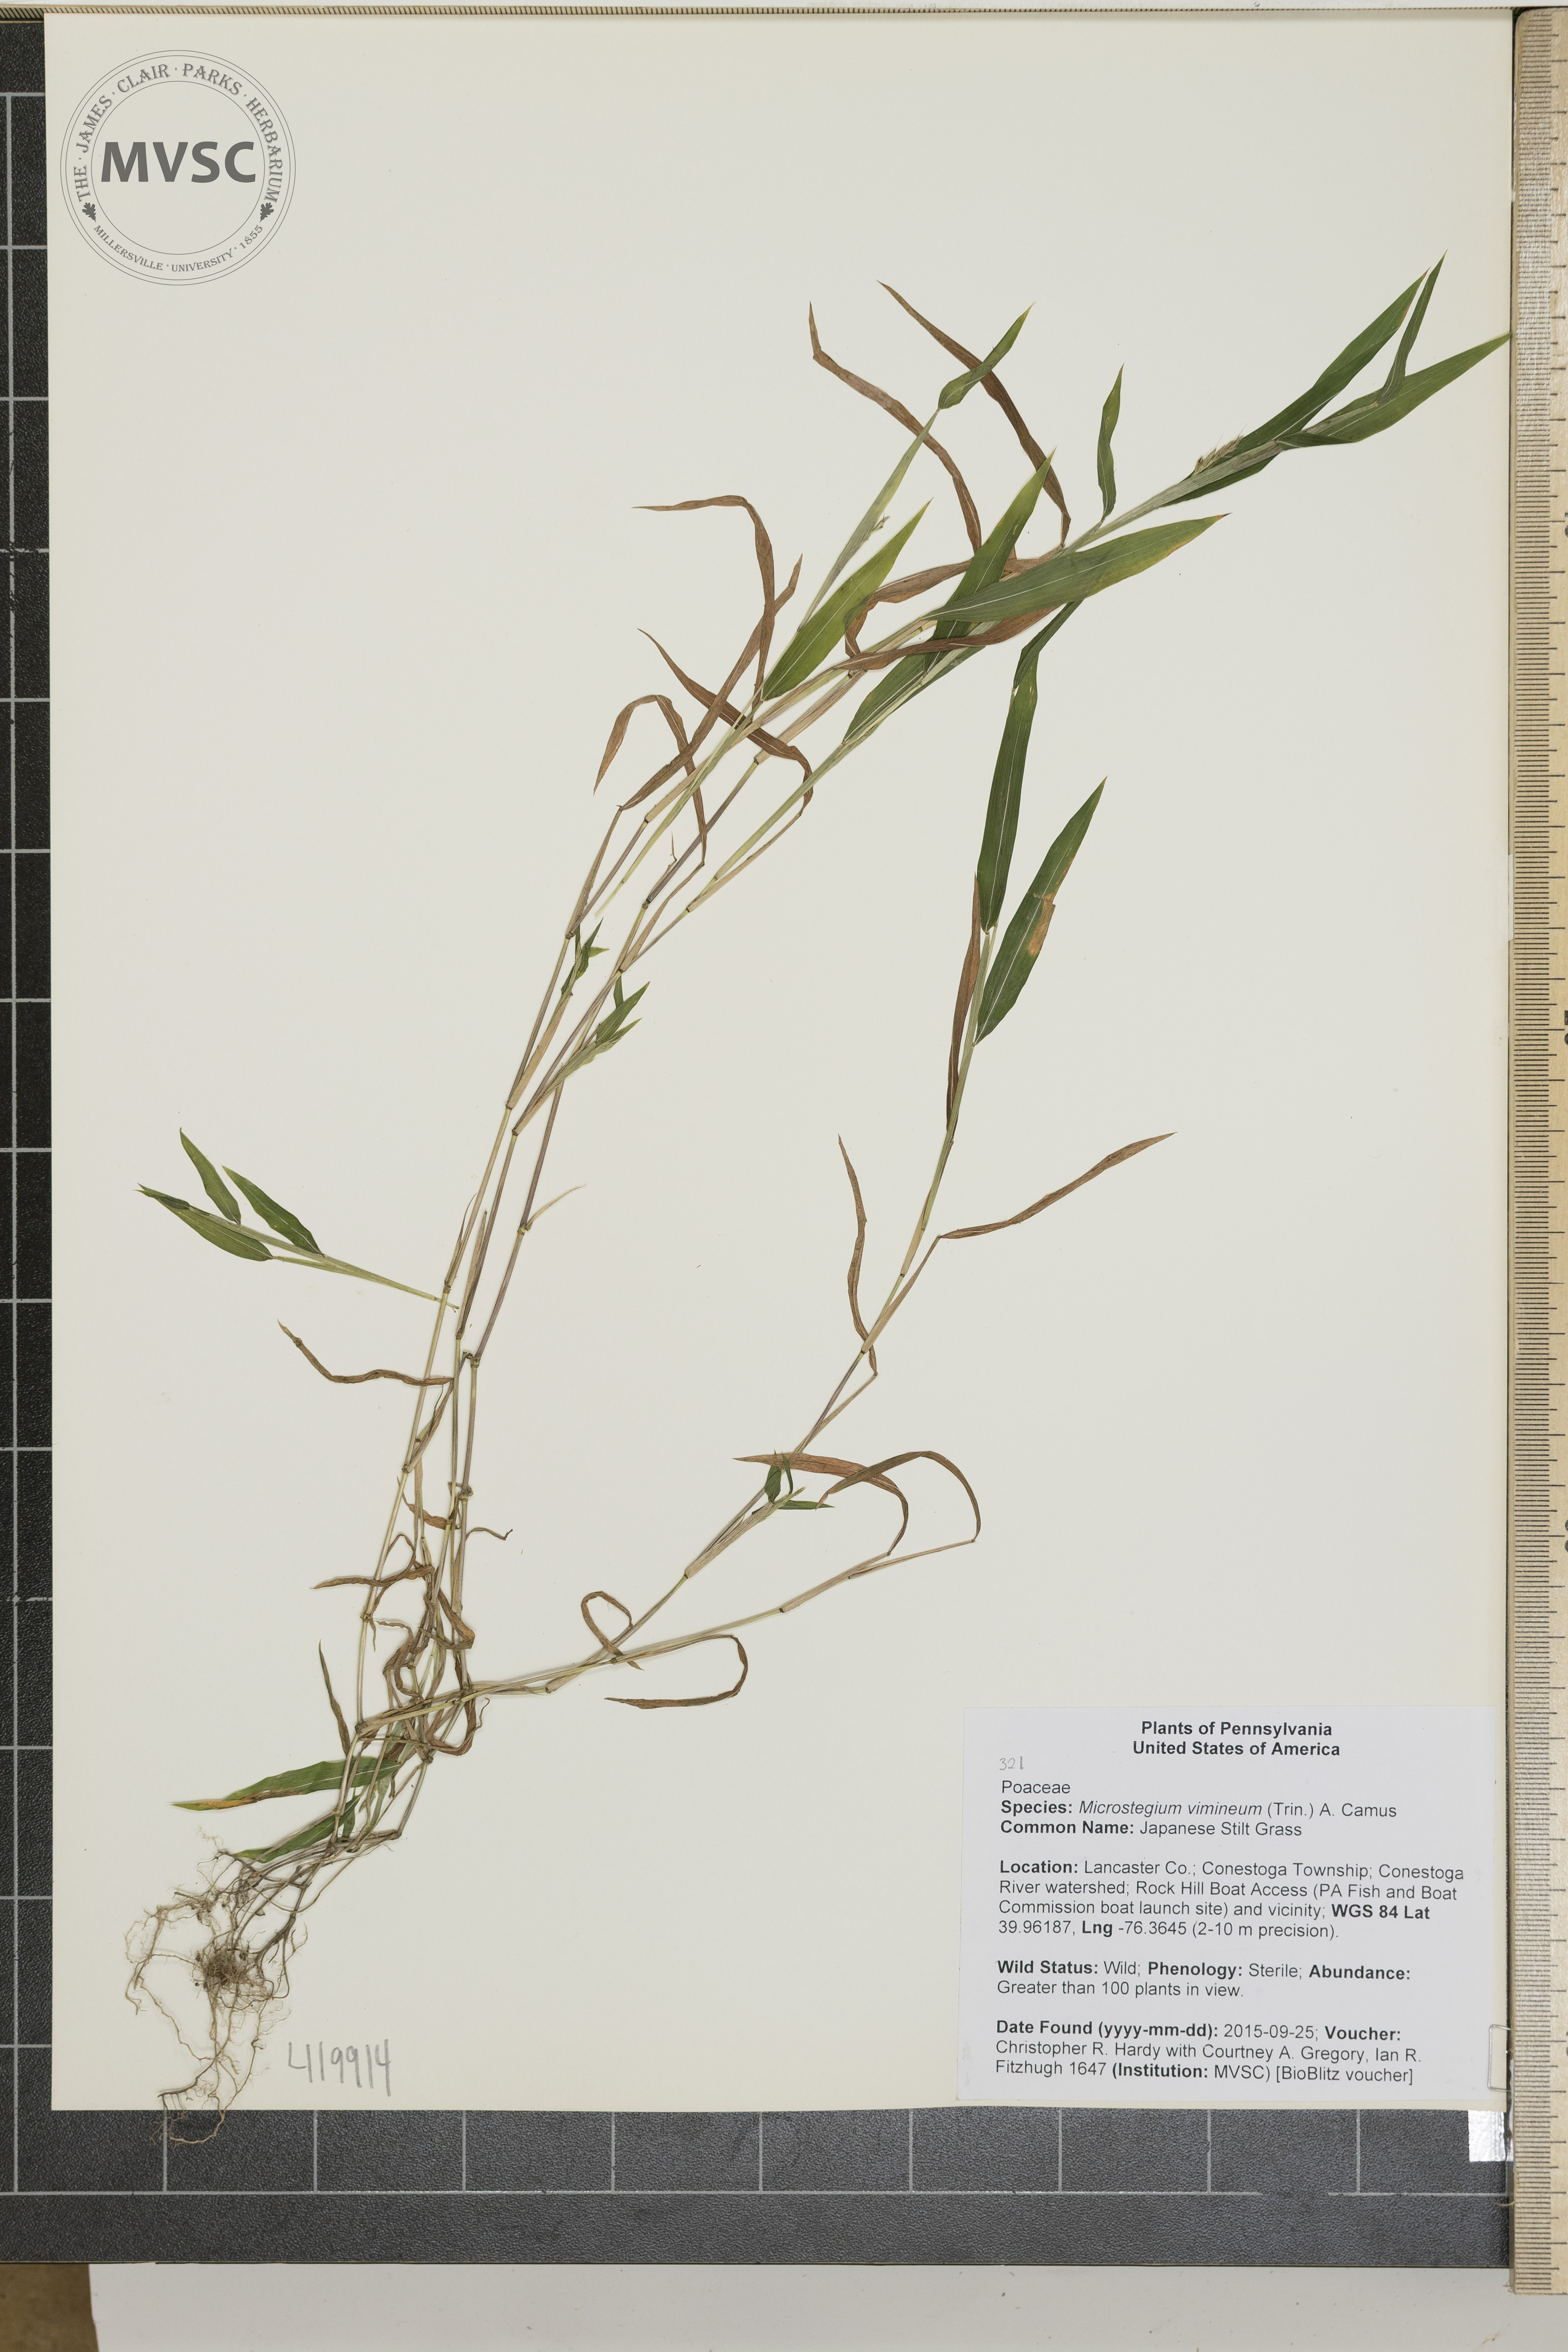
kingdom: Plantae
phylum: Tracheophyta
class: Liliopsida
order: Poales
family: Poaceae
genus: Microstegium
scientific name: Microstegium vimineum
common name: Japanese Stilt Grass
